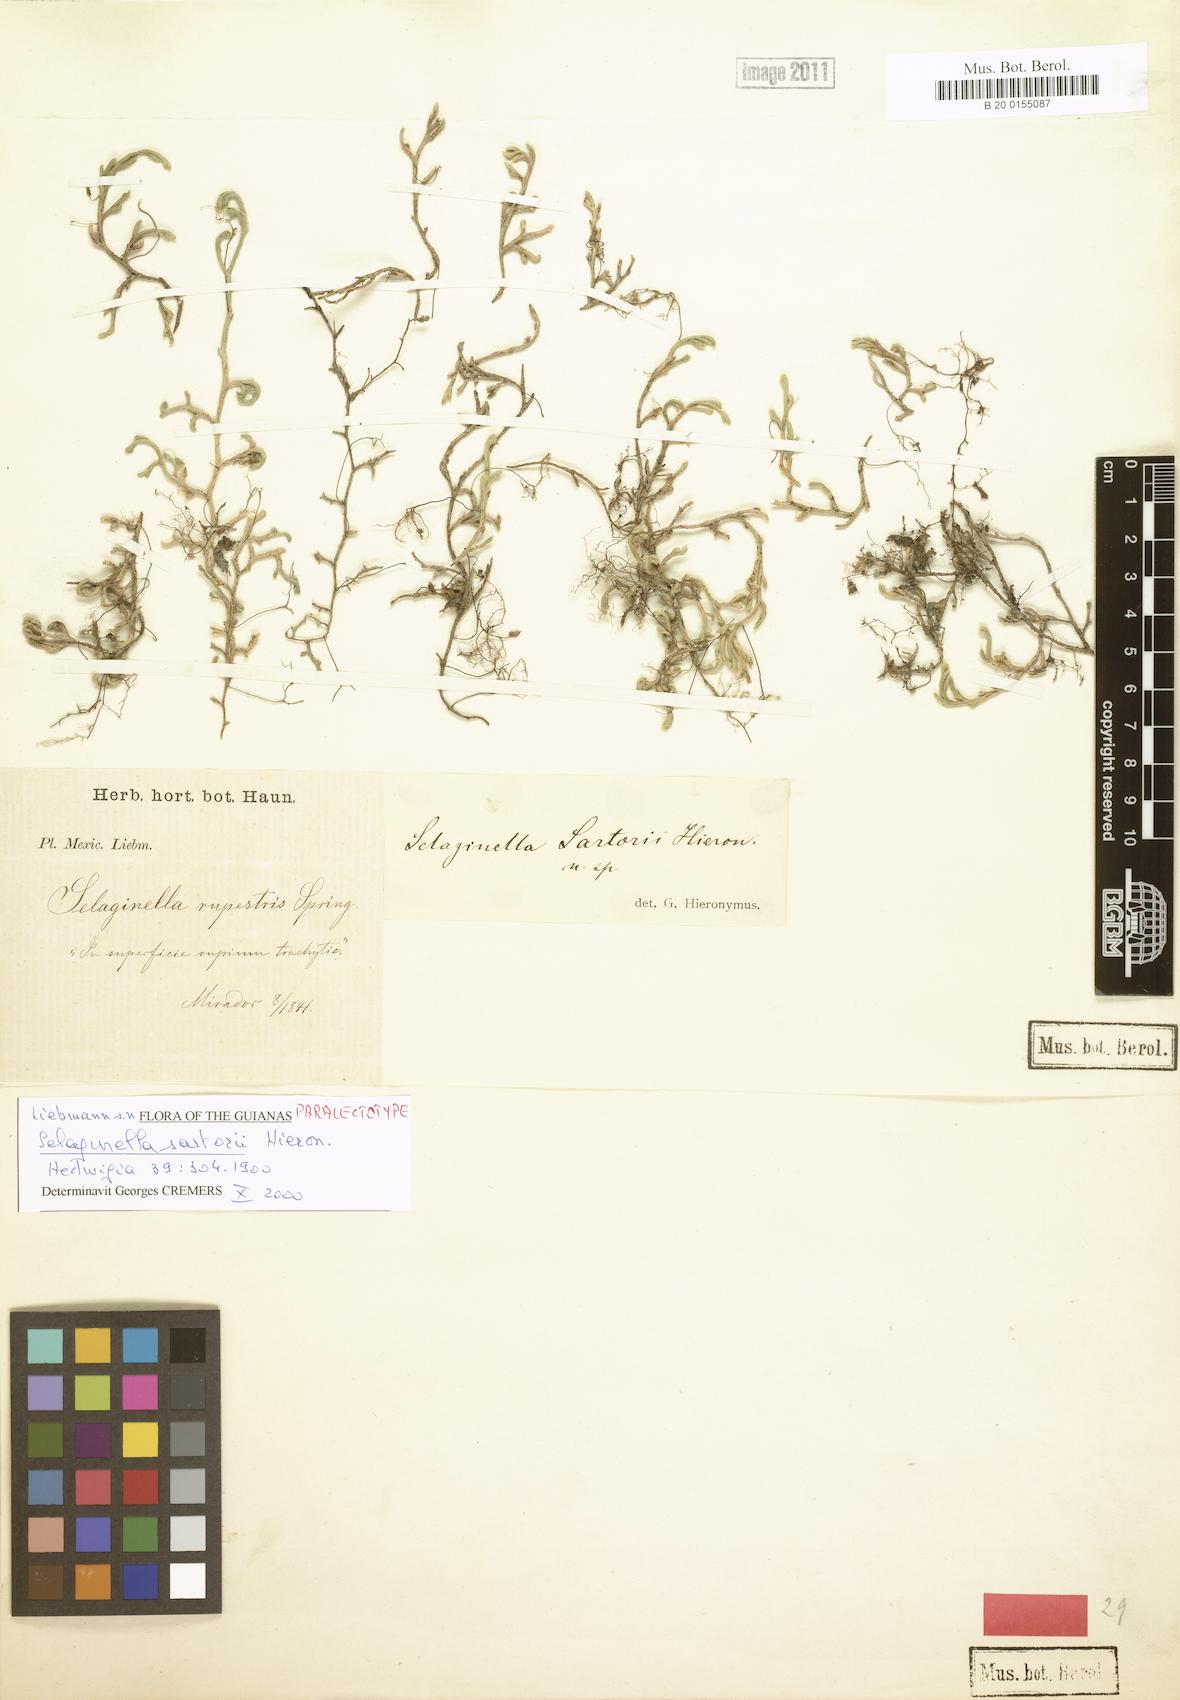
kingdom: Plantae
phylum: Tracheophyta
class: Lycopodiopsida
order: Selaginellales
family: Selaginellaceae
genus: Selaginella
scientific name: Selaginella sartorii
